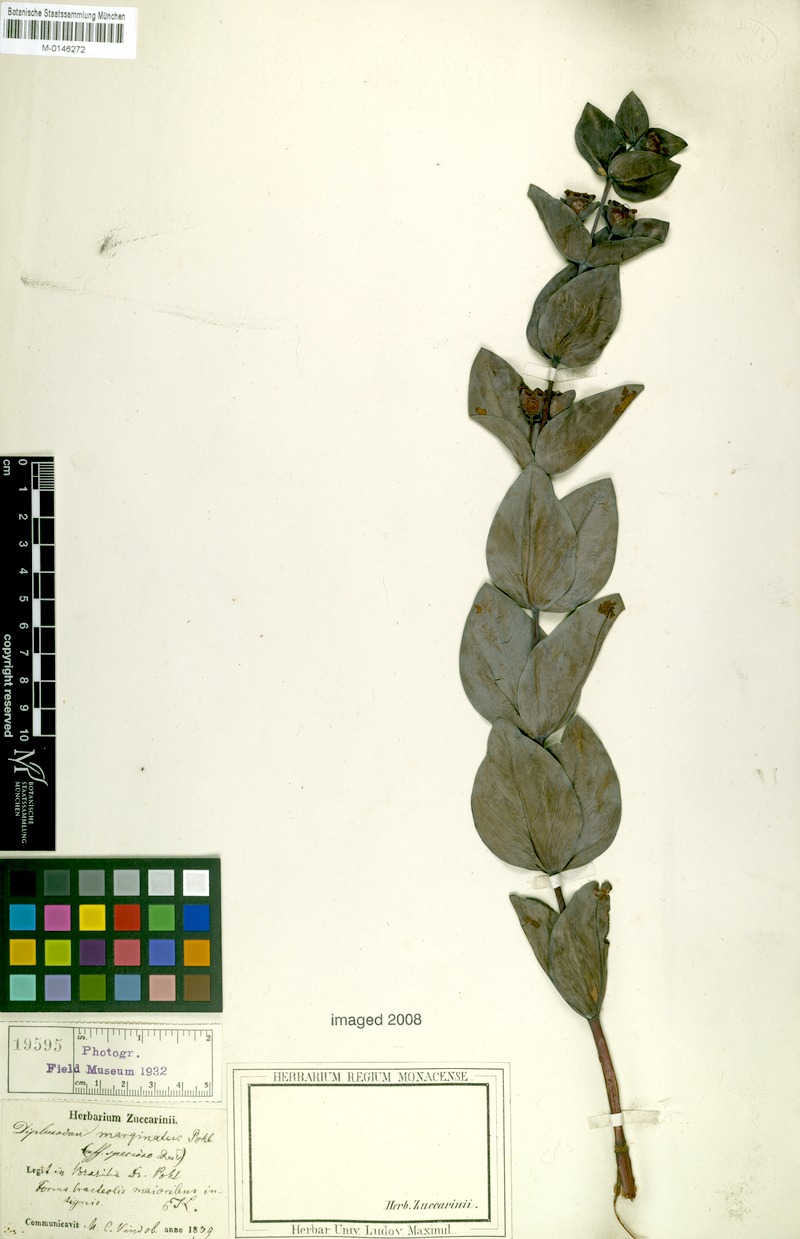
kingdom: Plantae
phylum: Tracheophyta
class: Magnoliopsida
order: Myrtales
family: Lythraceae
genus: Diplusodon
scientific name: Diplusodon marginatus
